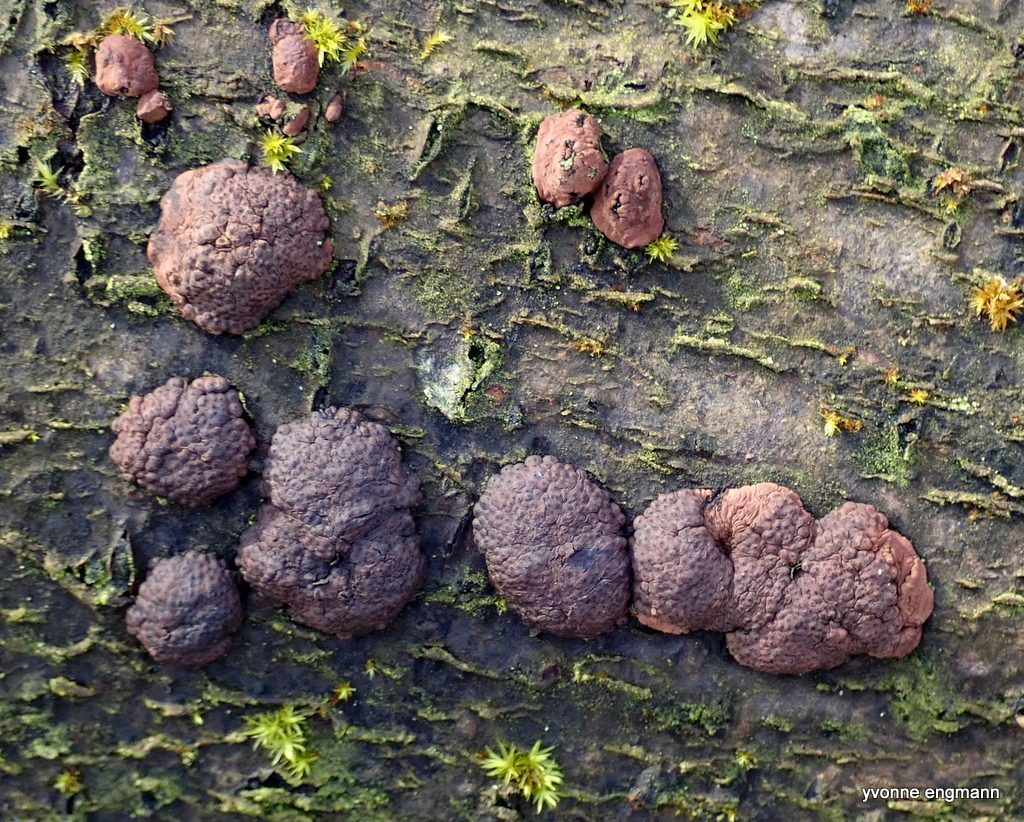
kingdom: Fungi
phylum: Ascomycota
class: Sordariomycetes
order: Xylariales
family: Hypoxylaceae
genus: Jackrogersella
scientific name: Jackrogersella
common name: kulbær
